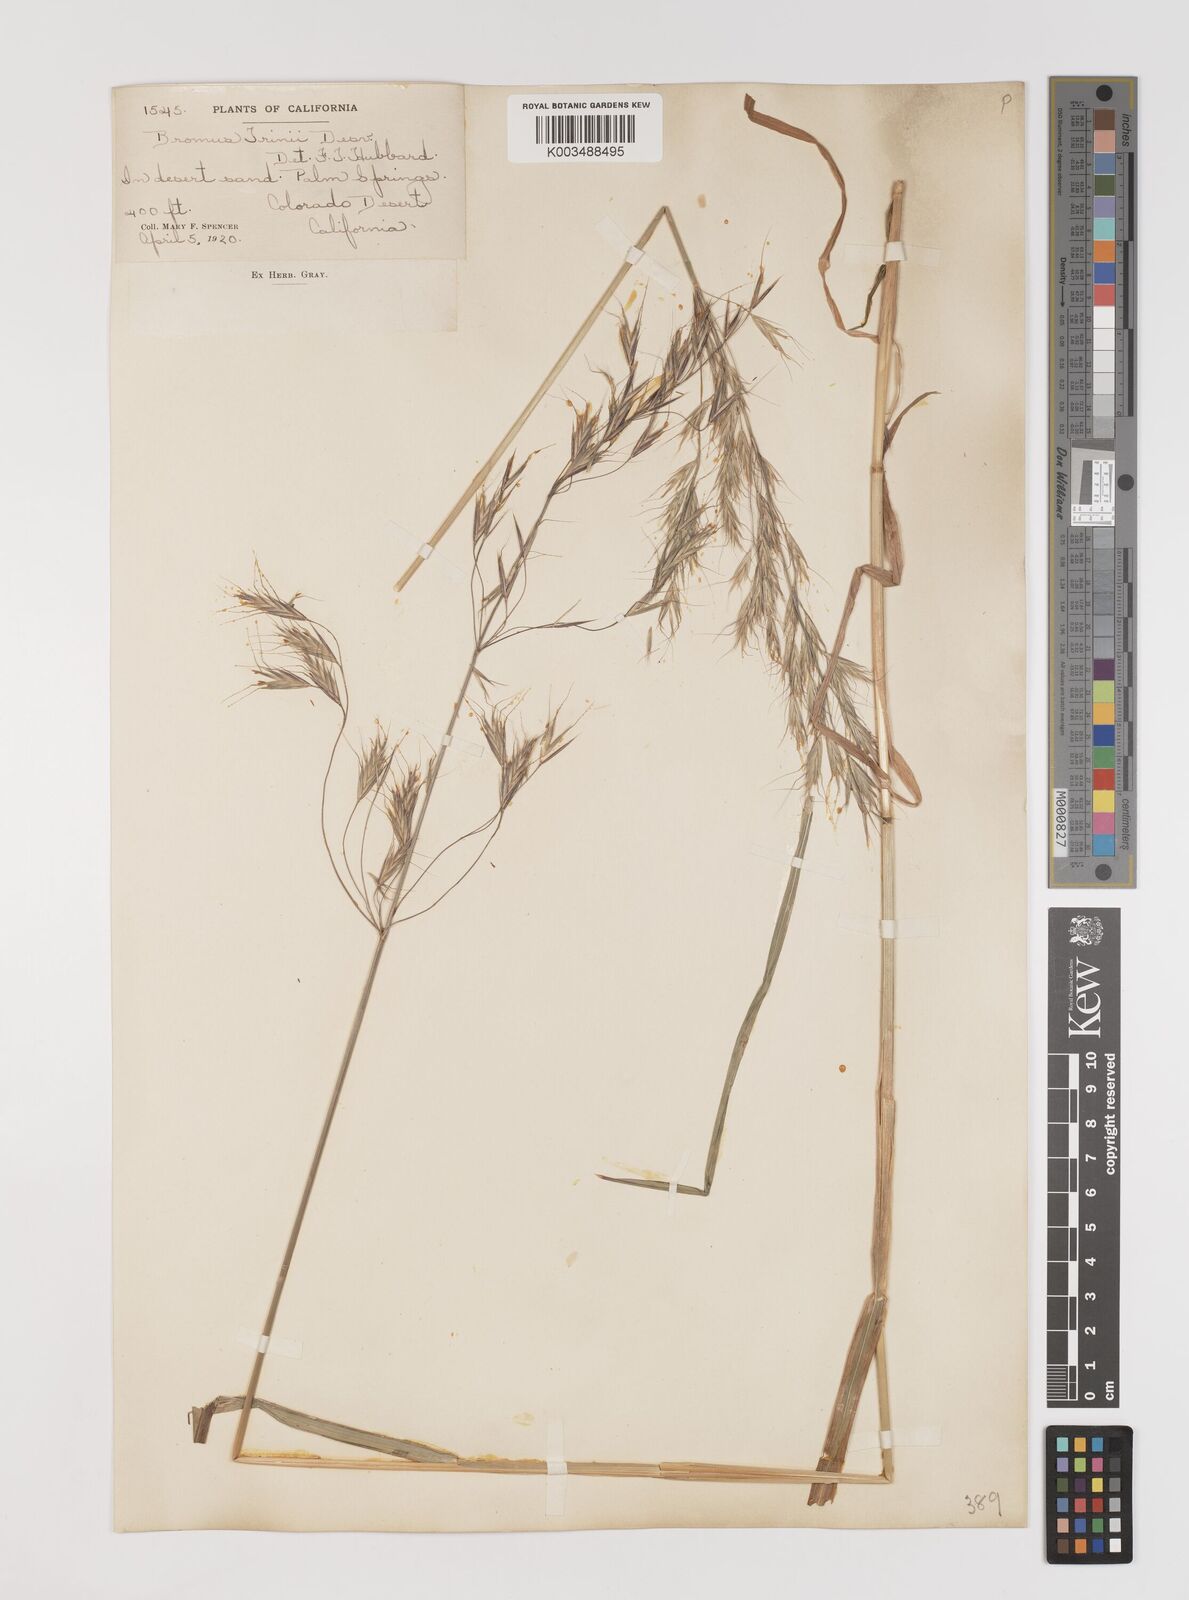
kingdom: Plantae
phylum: Tracheophyta
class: Liliopsida
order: Poales
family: Poaceae
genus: Bromus
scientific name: Bromus berteroanus
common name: Chilean chess
